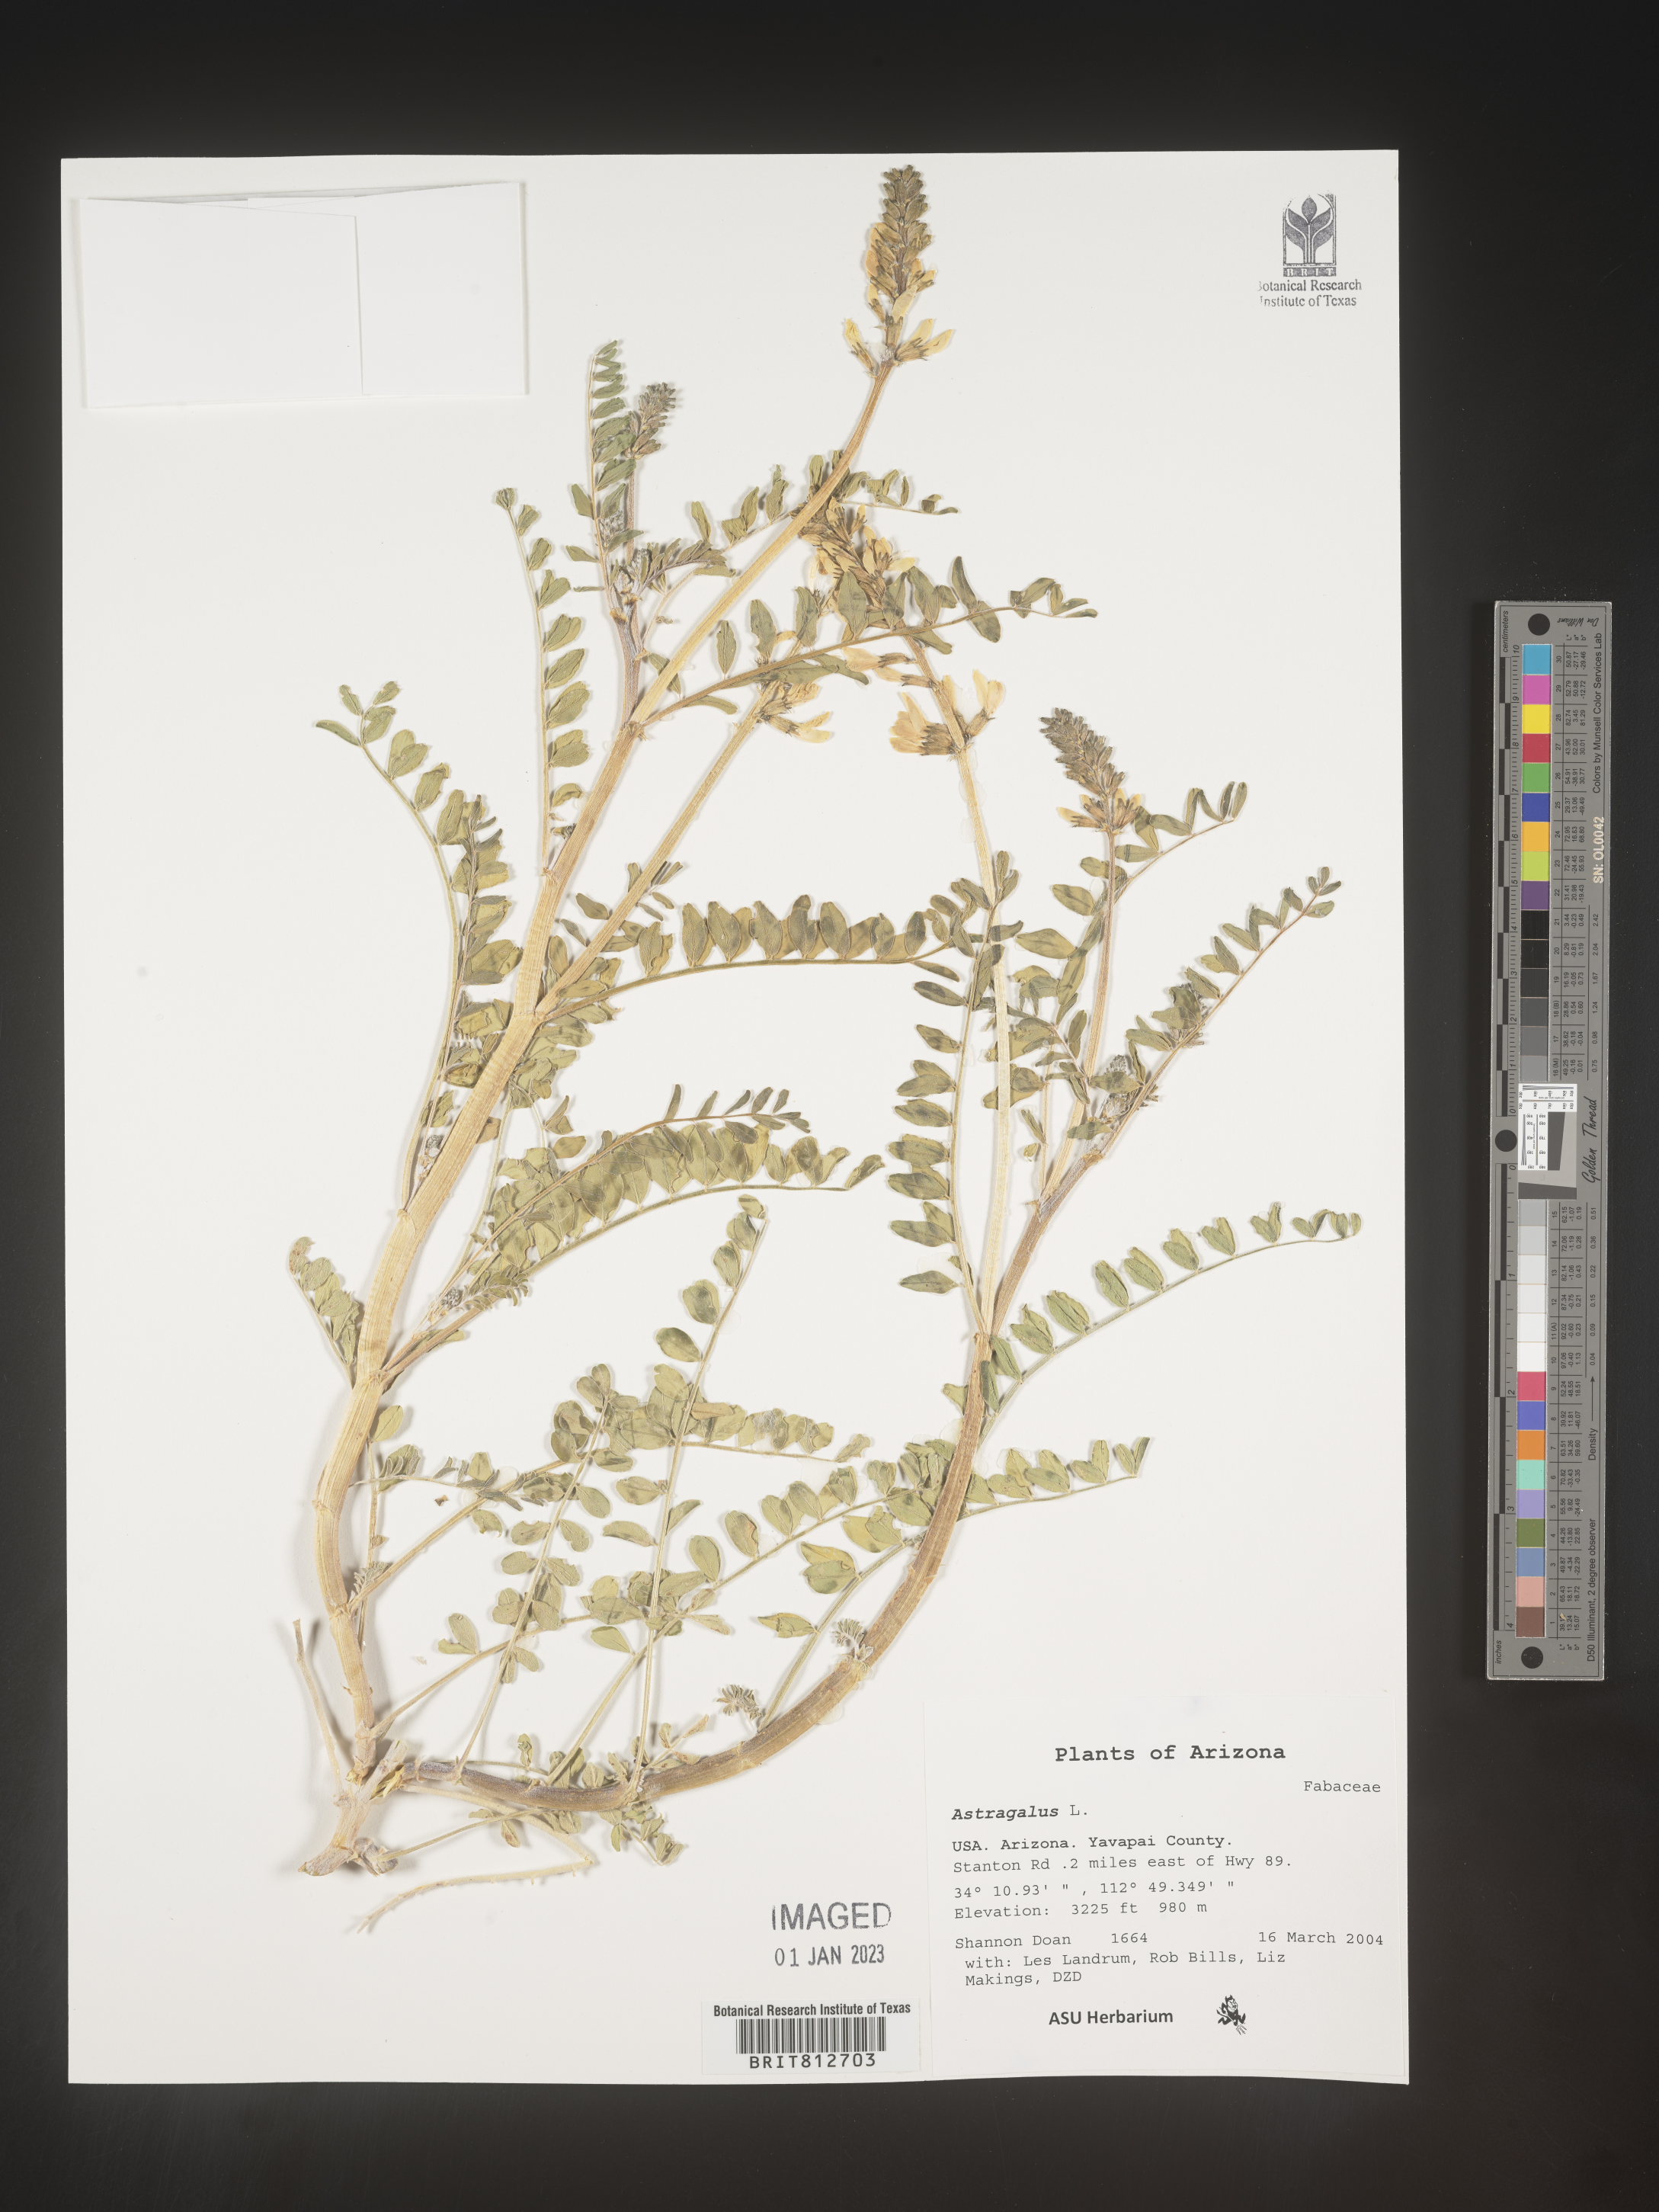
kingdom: Plantae
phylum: Tracheophyta
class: Magnoliopsida
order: Fabales
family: Fabaceae
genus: Astragalus
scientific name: Astragalus
